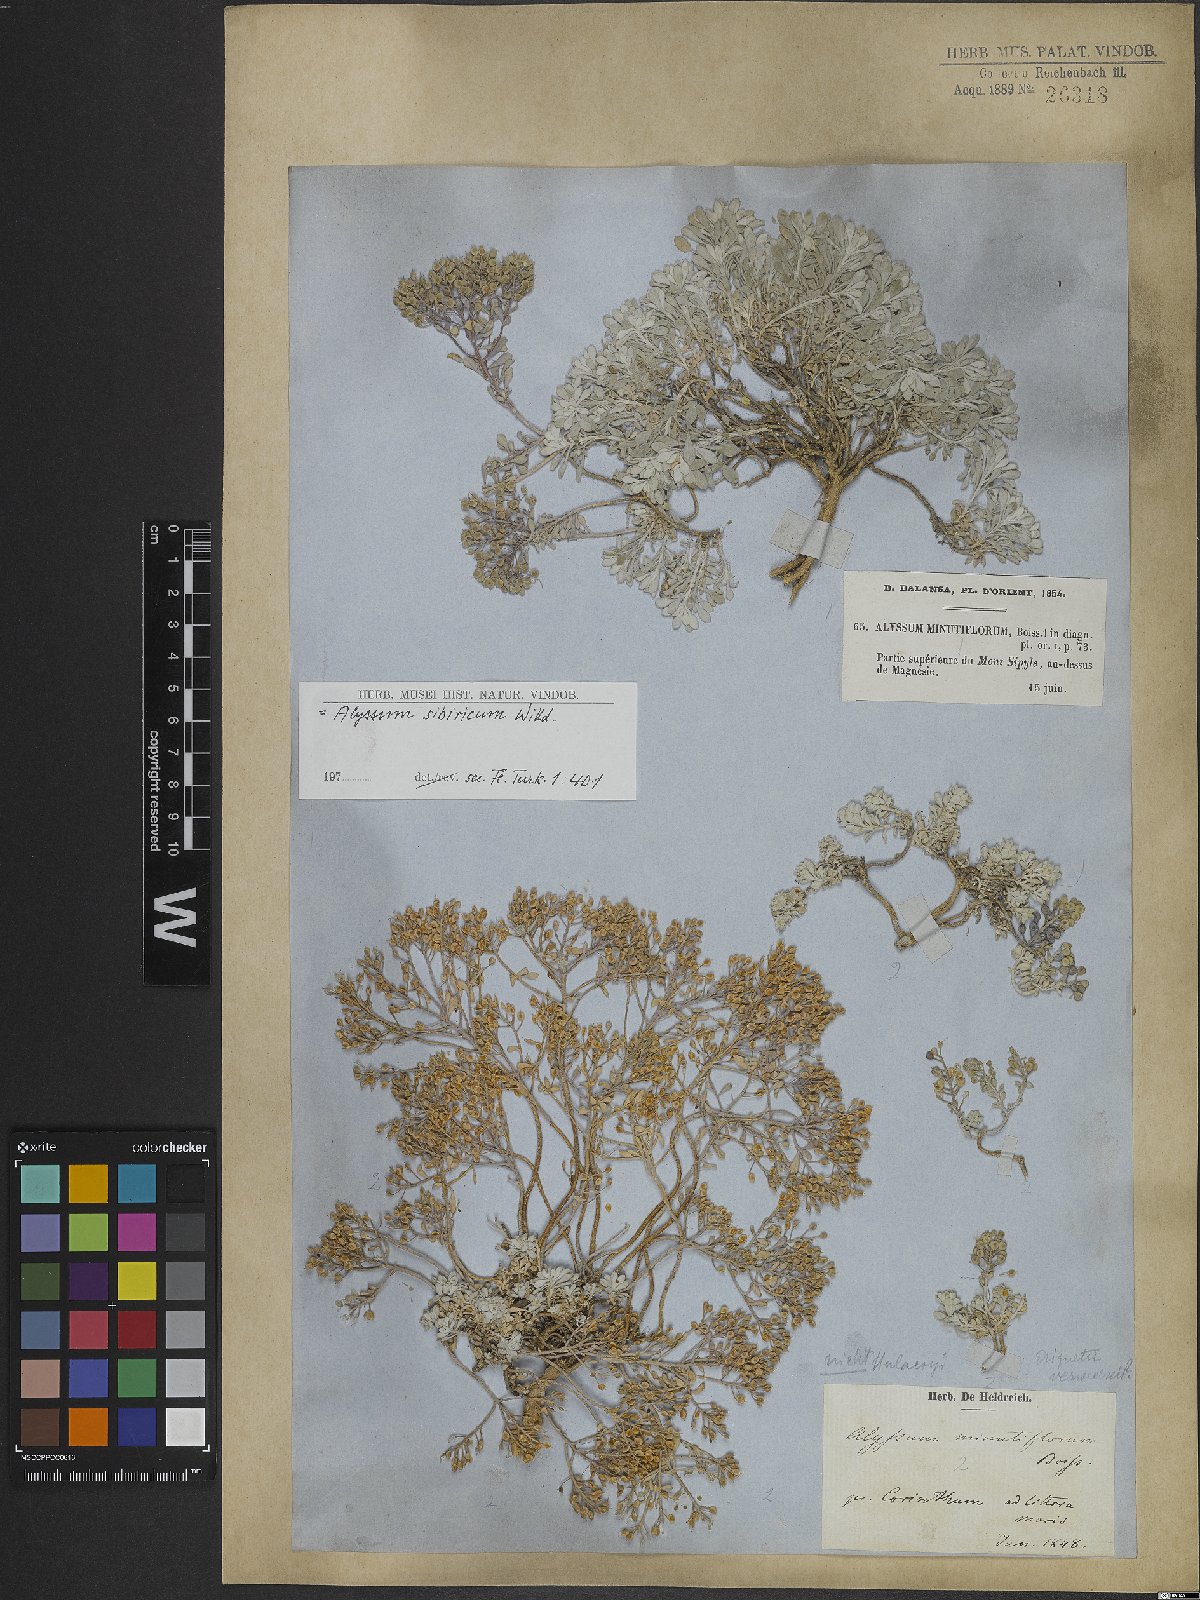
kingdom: Plantae
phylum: Tracheophyta
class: Magnoliopsida
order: Brassicales
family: Brassicaceae
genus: Odontarrhena
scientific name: Odontarrhena sibirica
